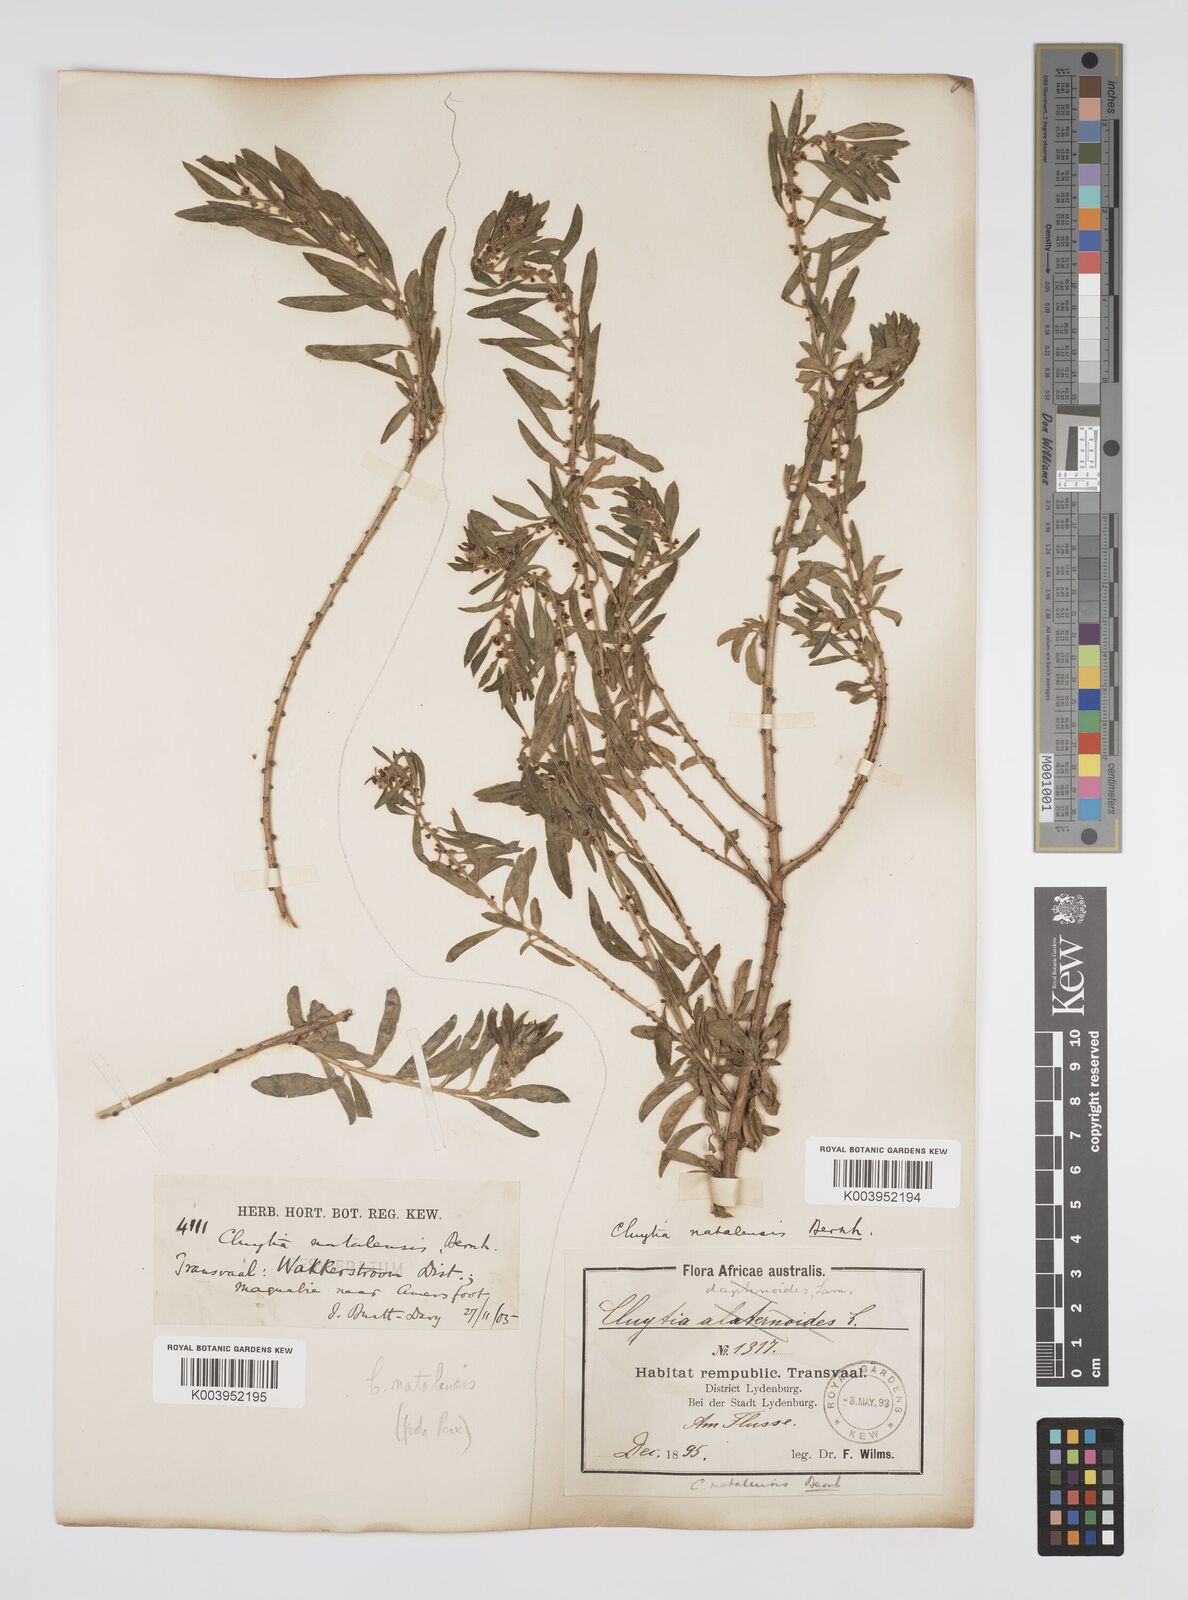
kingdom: Plantae
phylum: Tracheophyta
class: Magnoliopsida
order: Malpighiales
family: Peraceae
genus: Clutia
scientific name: Clutia natalensis
